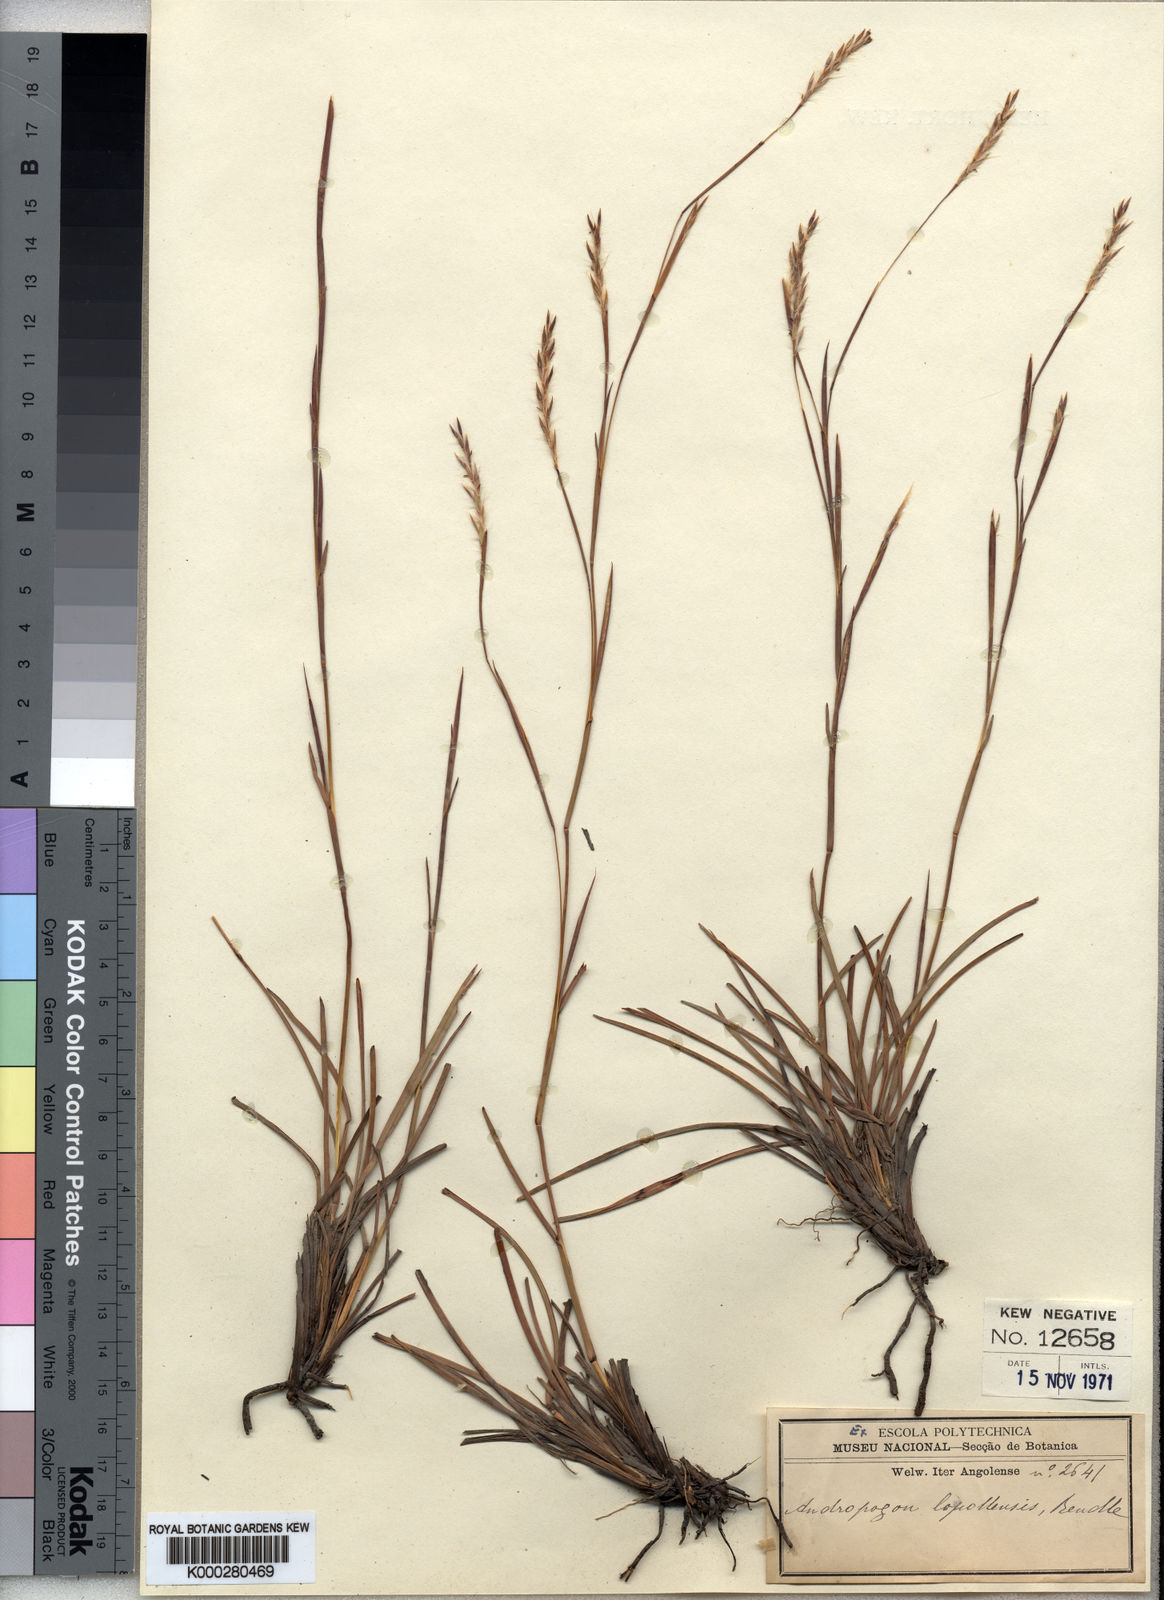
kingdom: Plantae
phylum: Tracheophyta
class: Liliopsida
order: Poales
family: Poaceae
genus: Schizachyrium
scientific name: Schizachyrium lopollense
